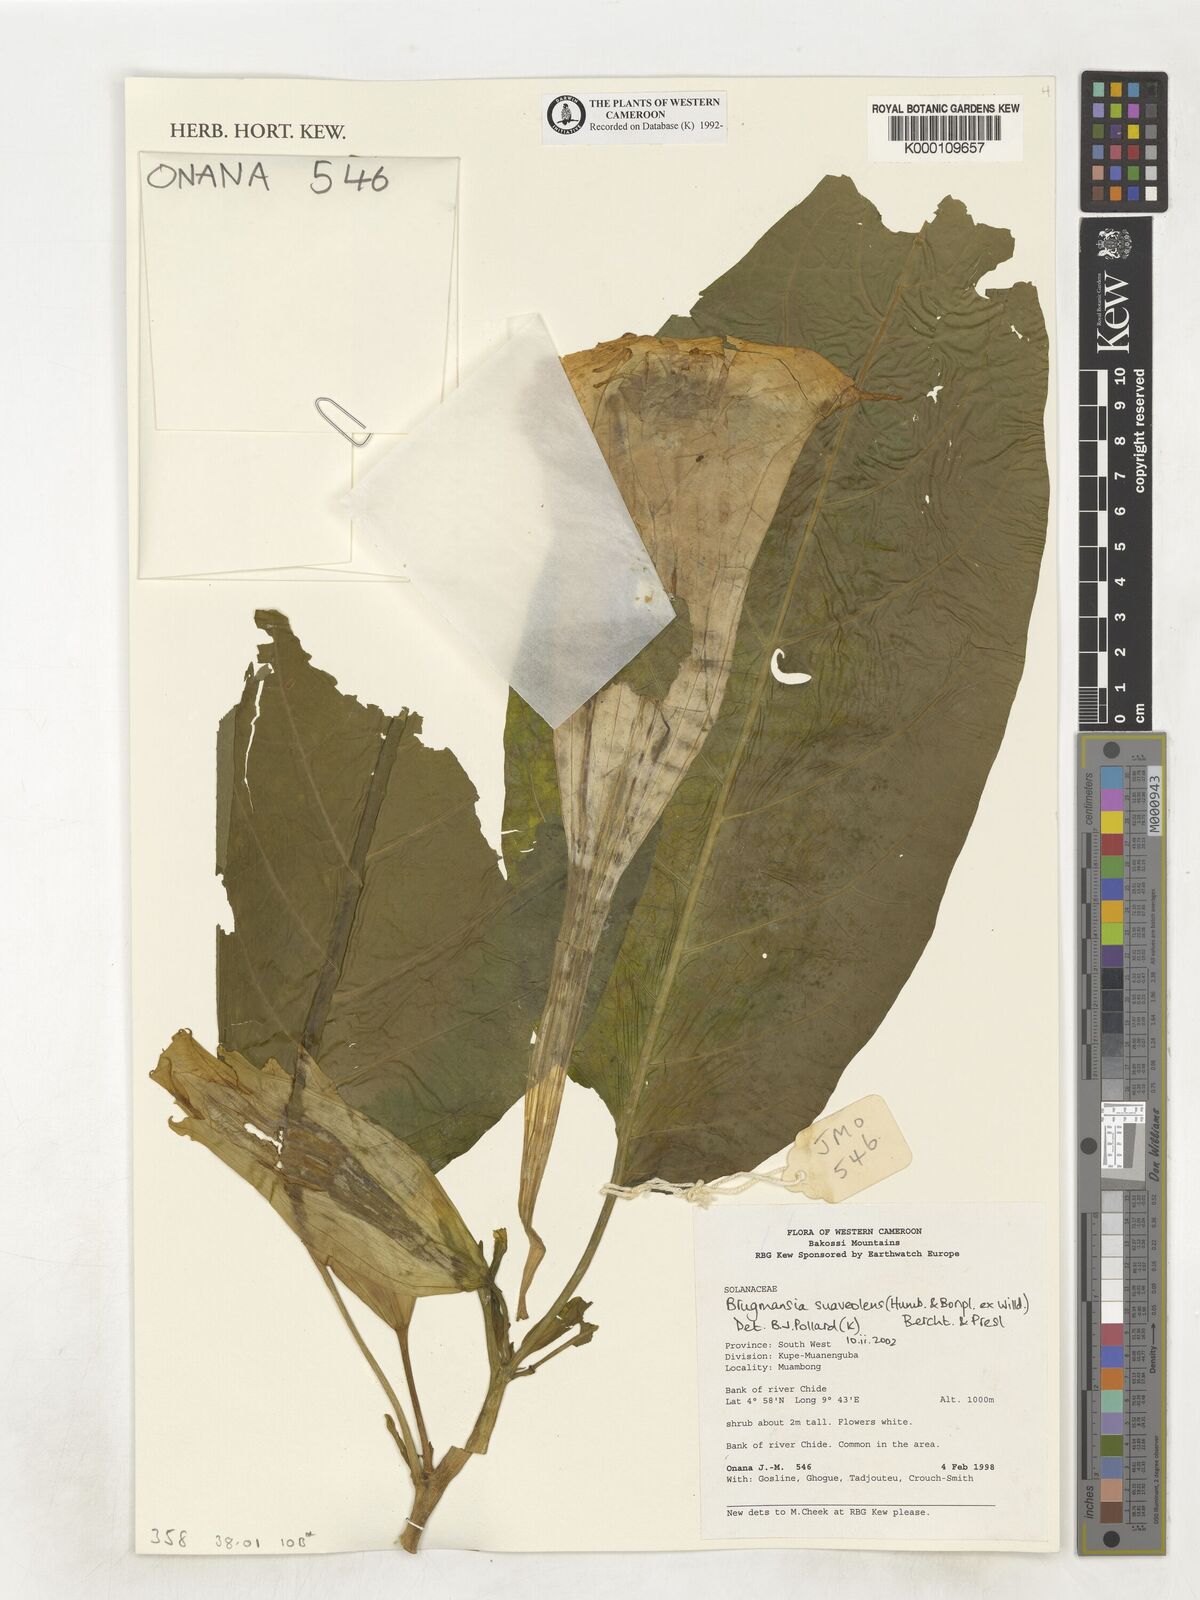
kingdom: Plantae
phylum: Tracheophyta
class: Magnoliopsida
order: Solanales
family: Solanaceae
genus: Brugmansia
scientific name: Brugmansia
